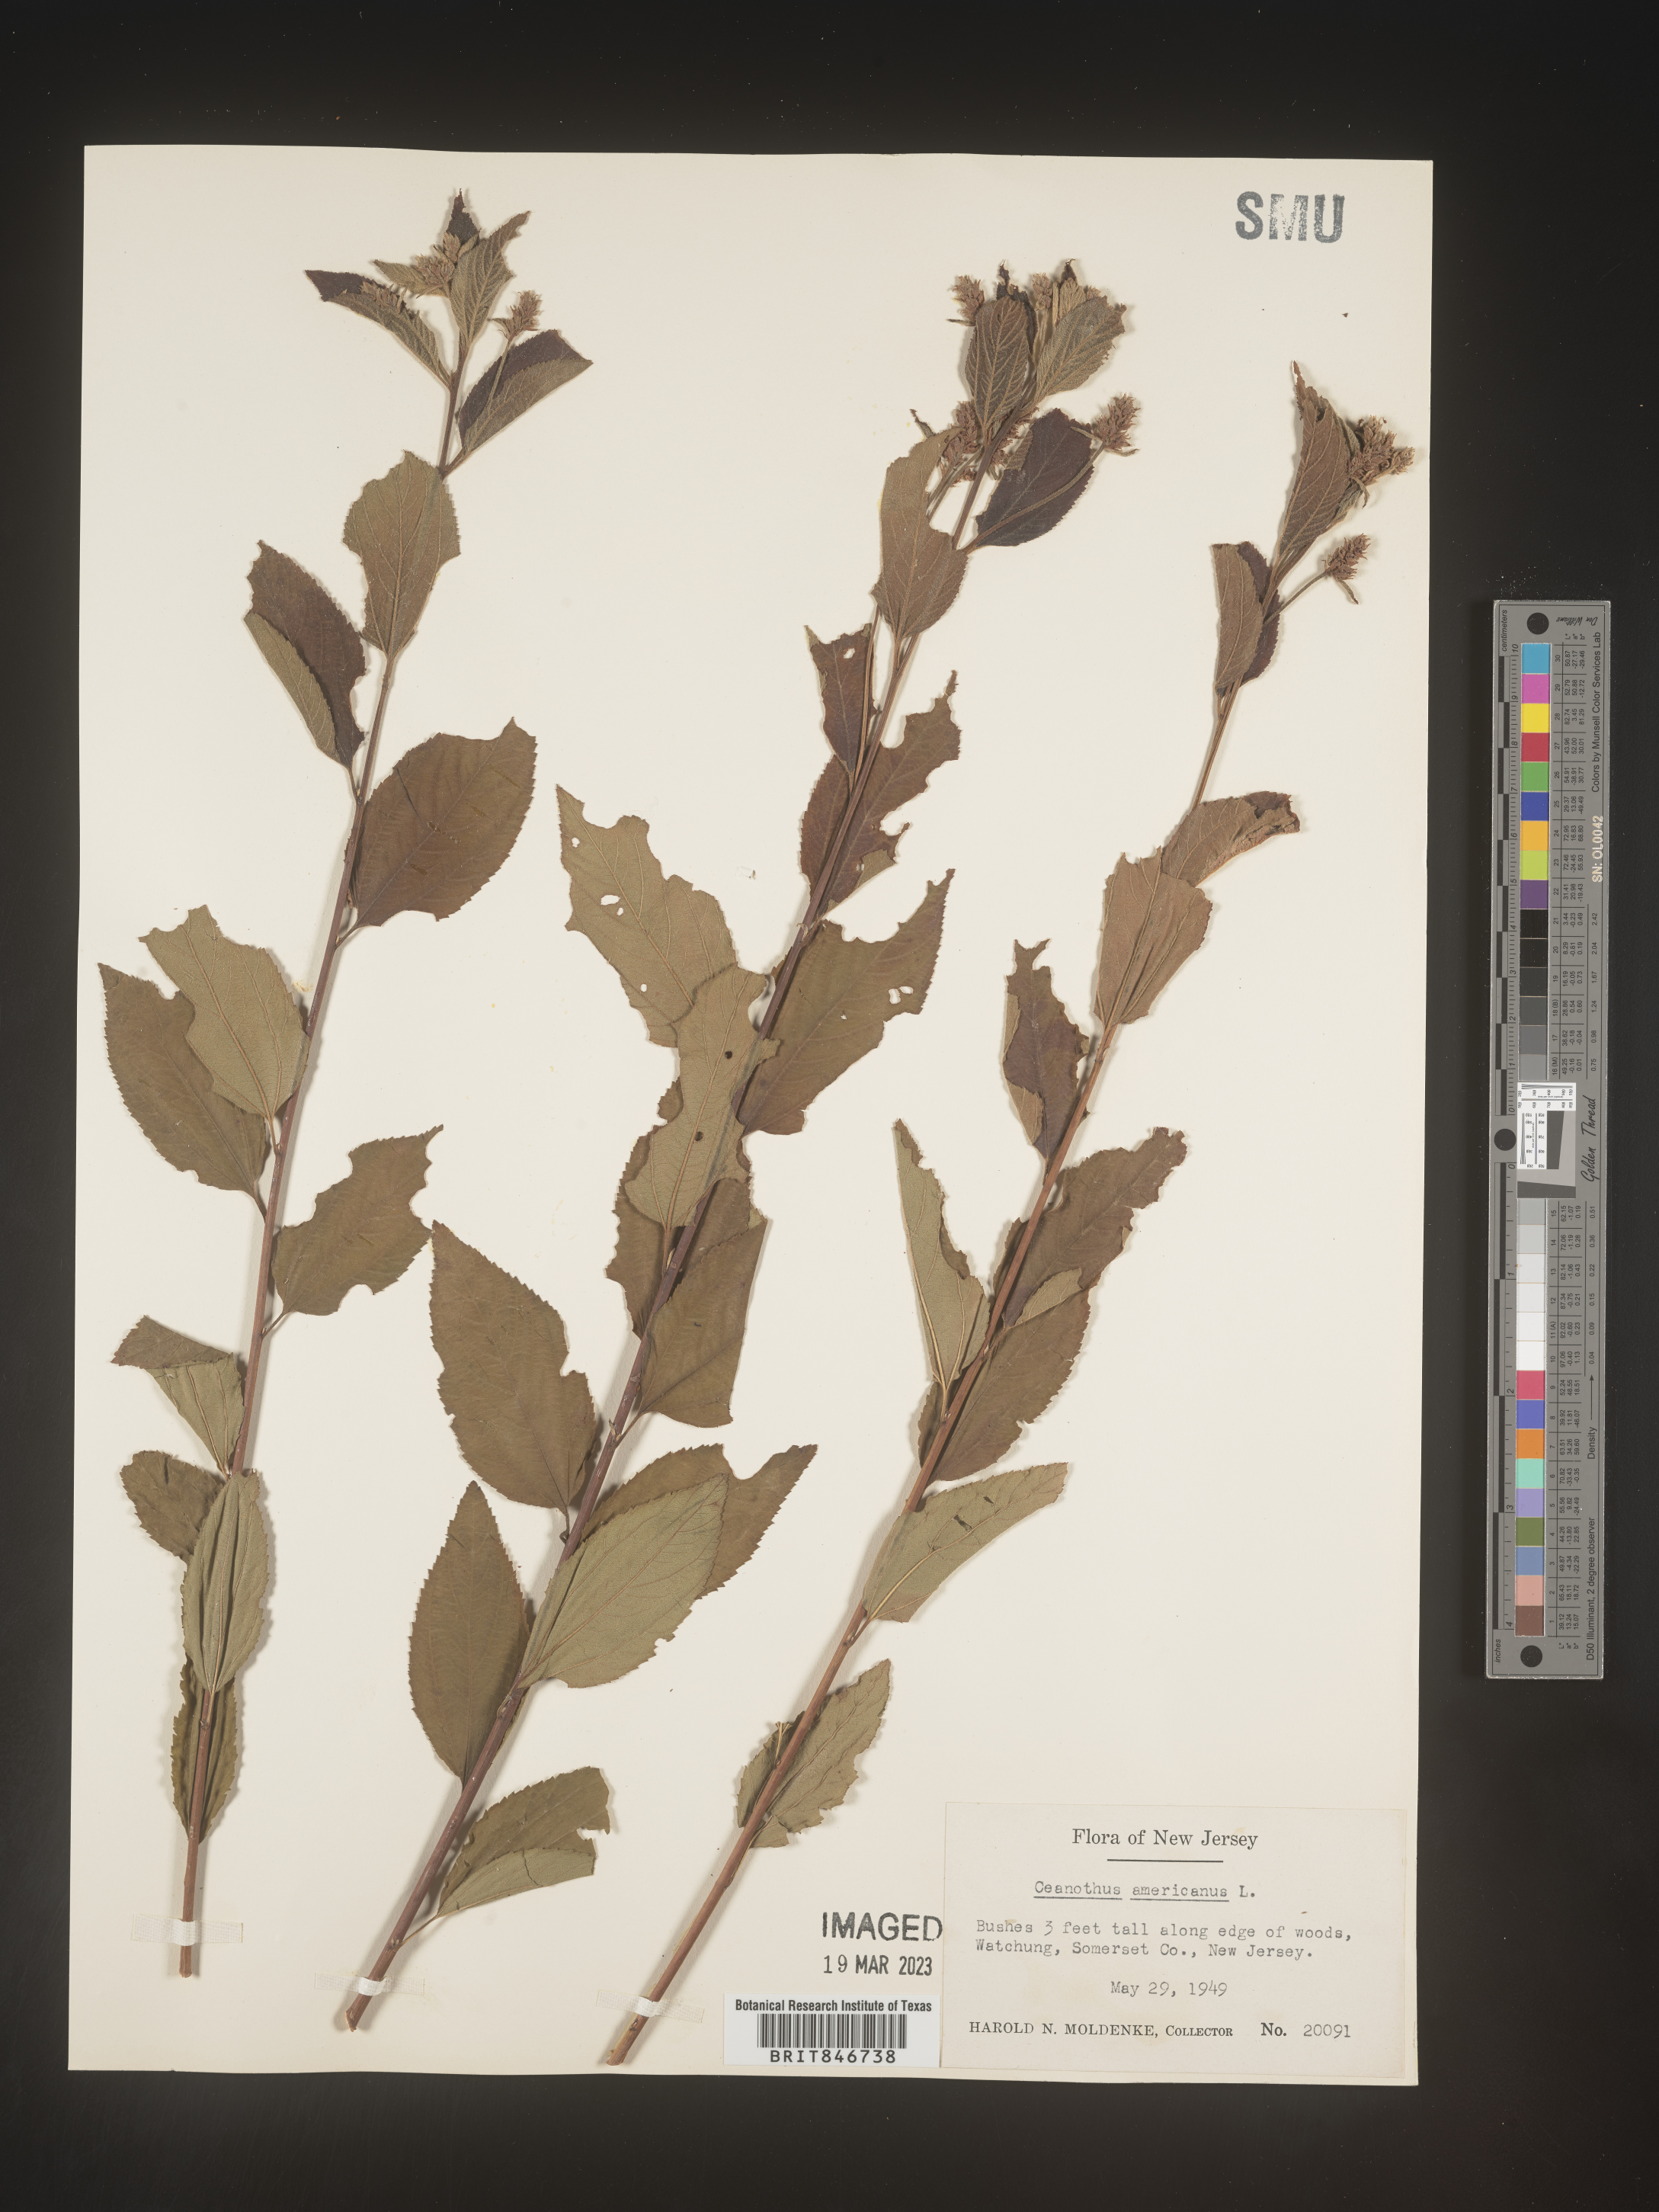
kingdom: Plantae
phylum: Tracheophyta
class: Magnoliopsida
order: Rosales
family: Rhamnaceae
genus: Ceanothus
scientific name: Ceanothus americanus
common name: Redroot
